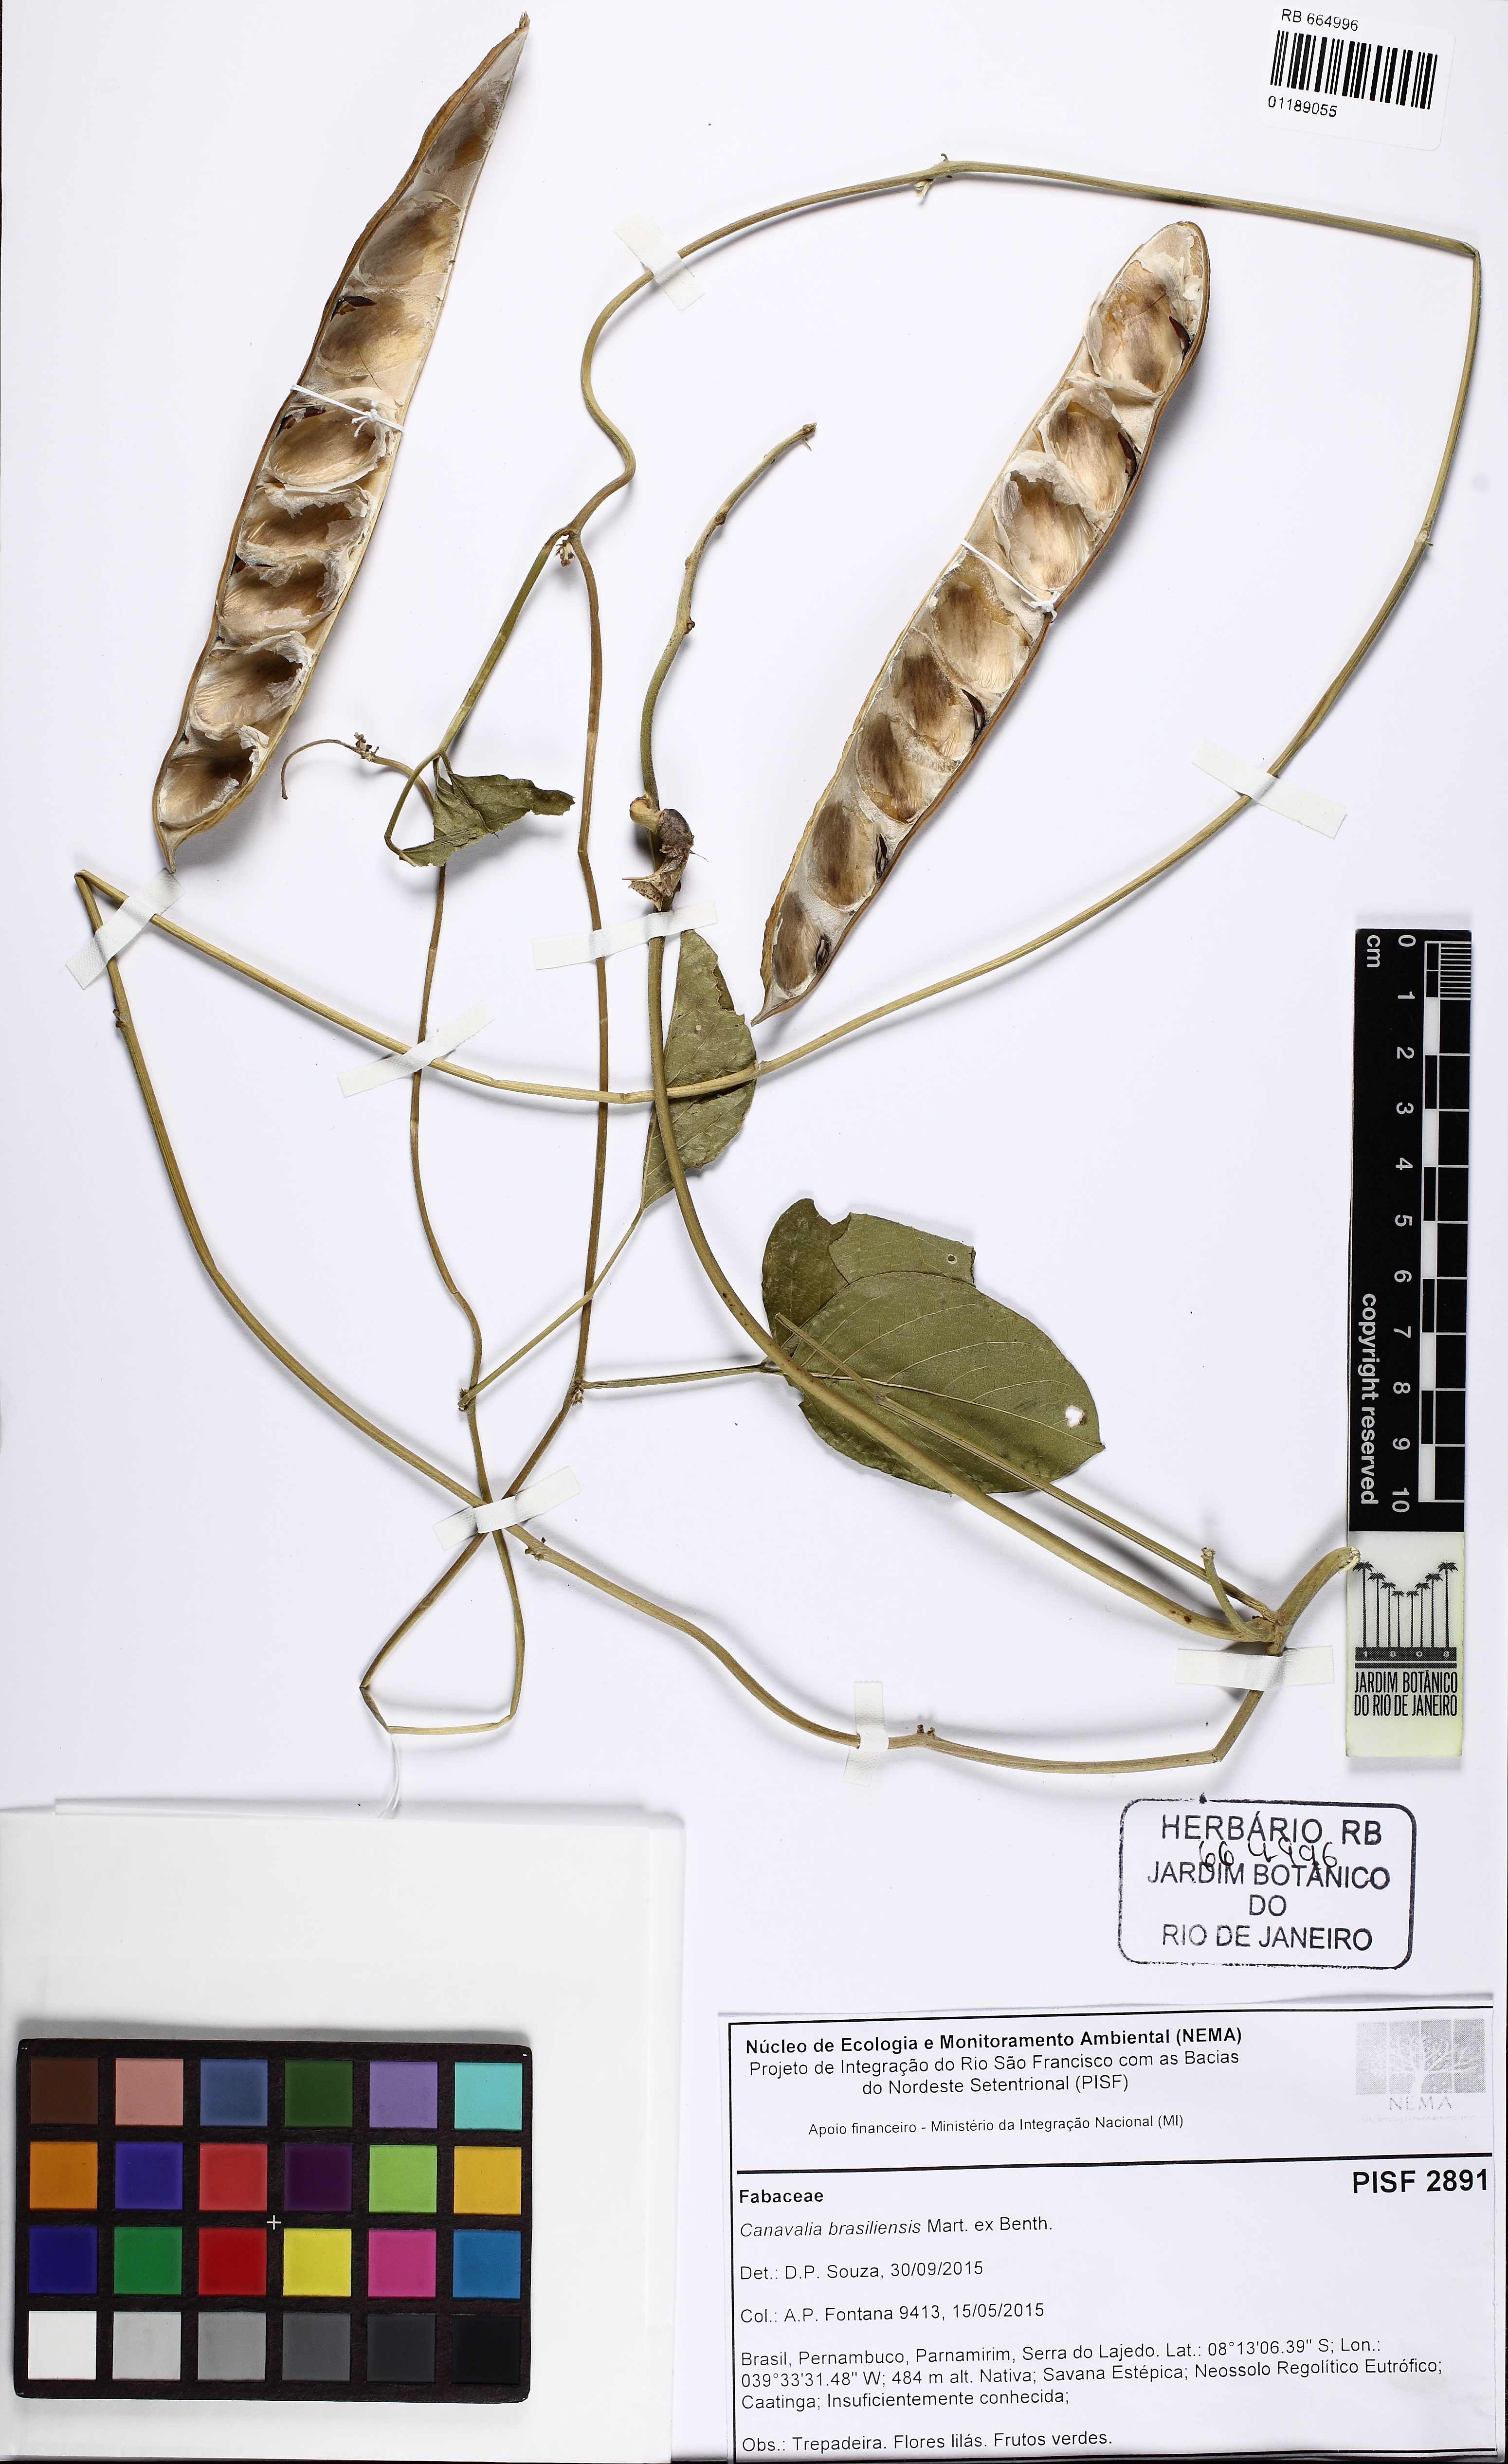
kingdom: Plantae
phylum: Tracheophyta
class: Magnoliopsida
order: Fabales
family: Fabaceae
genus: Canavalia
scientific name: Canavalia brasiliensis
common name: Barbicou-bean
